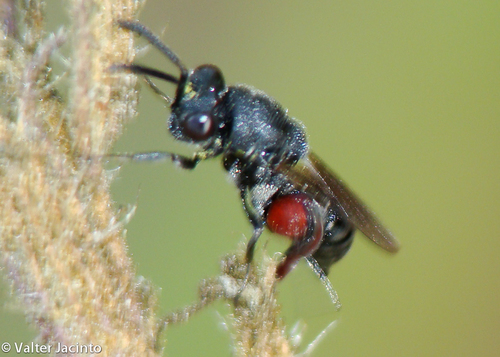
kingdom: Animalia
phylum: Arthropoda
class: Insecta
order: Hymenoptera
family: Chalcididae
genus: Chirocera
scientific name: Chirocera pectinicornis
